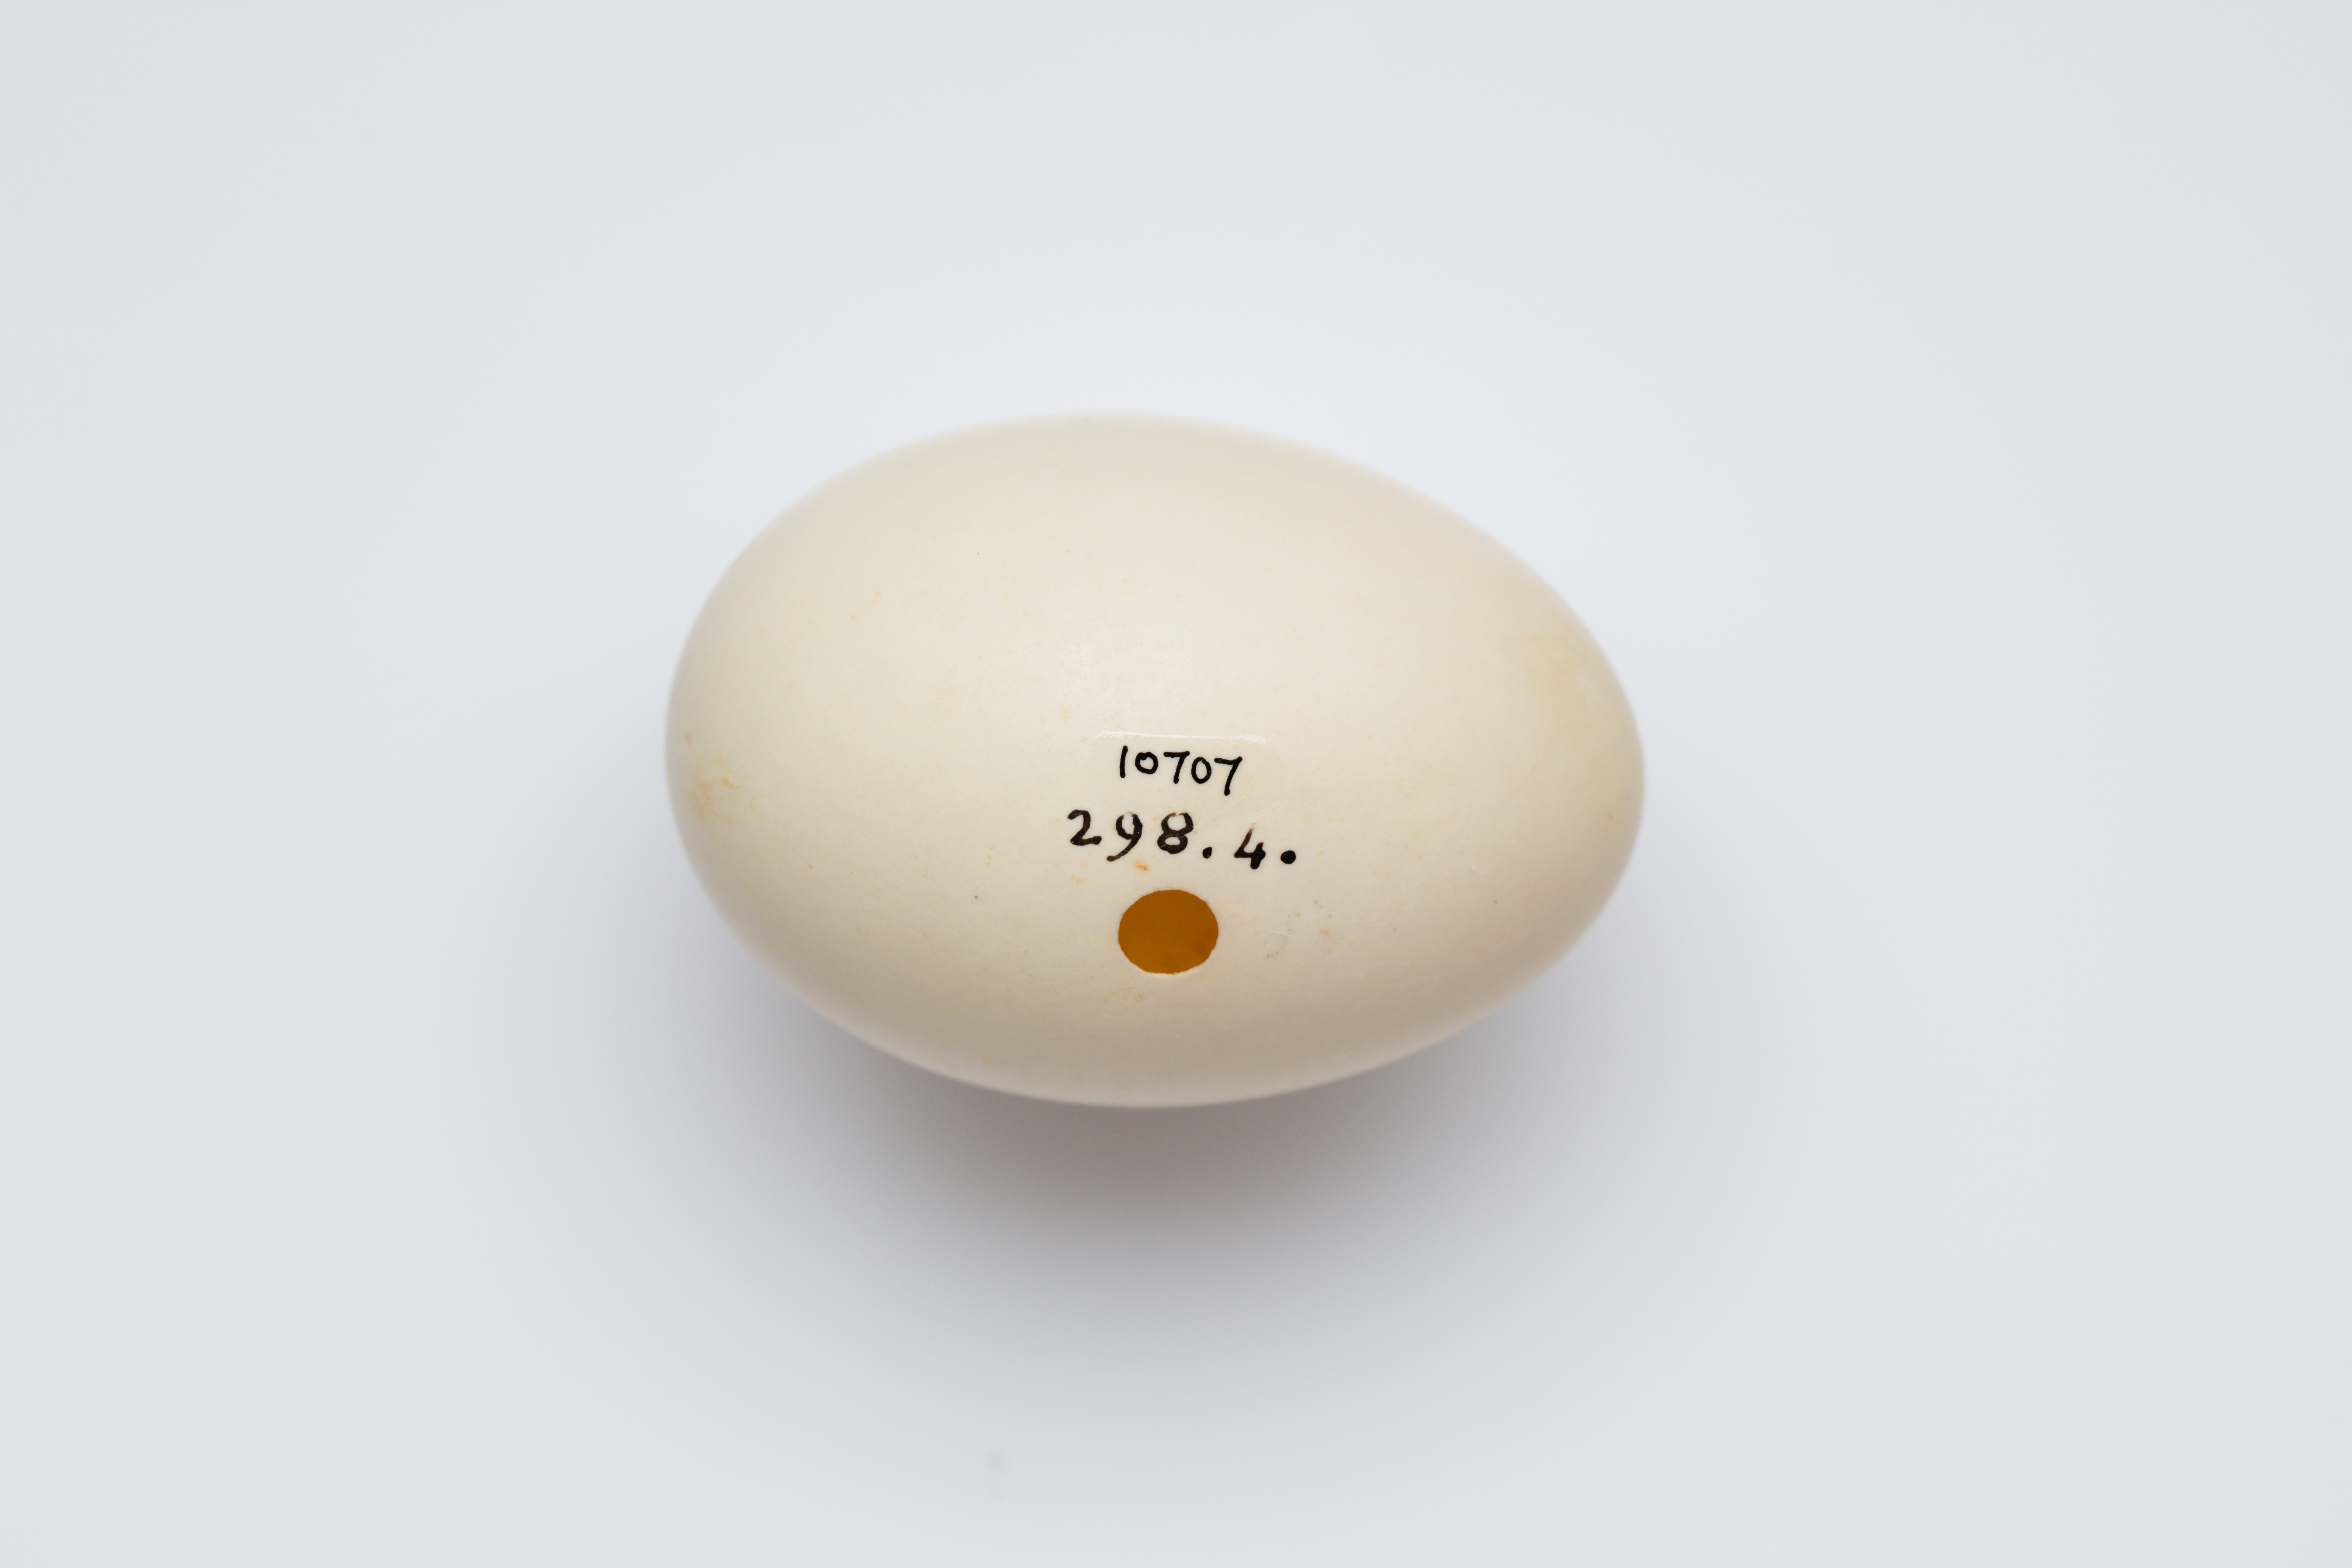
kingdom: Animalia
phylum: Chordata
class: Aves
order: Anseriformes
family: Anatidae
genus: Mareca
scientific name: Mareca penelope
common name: Eurasian wigeon
